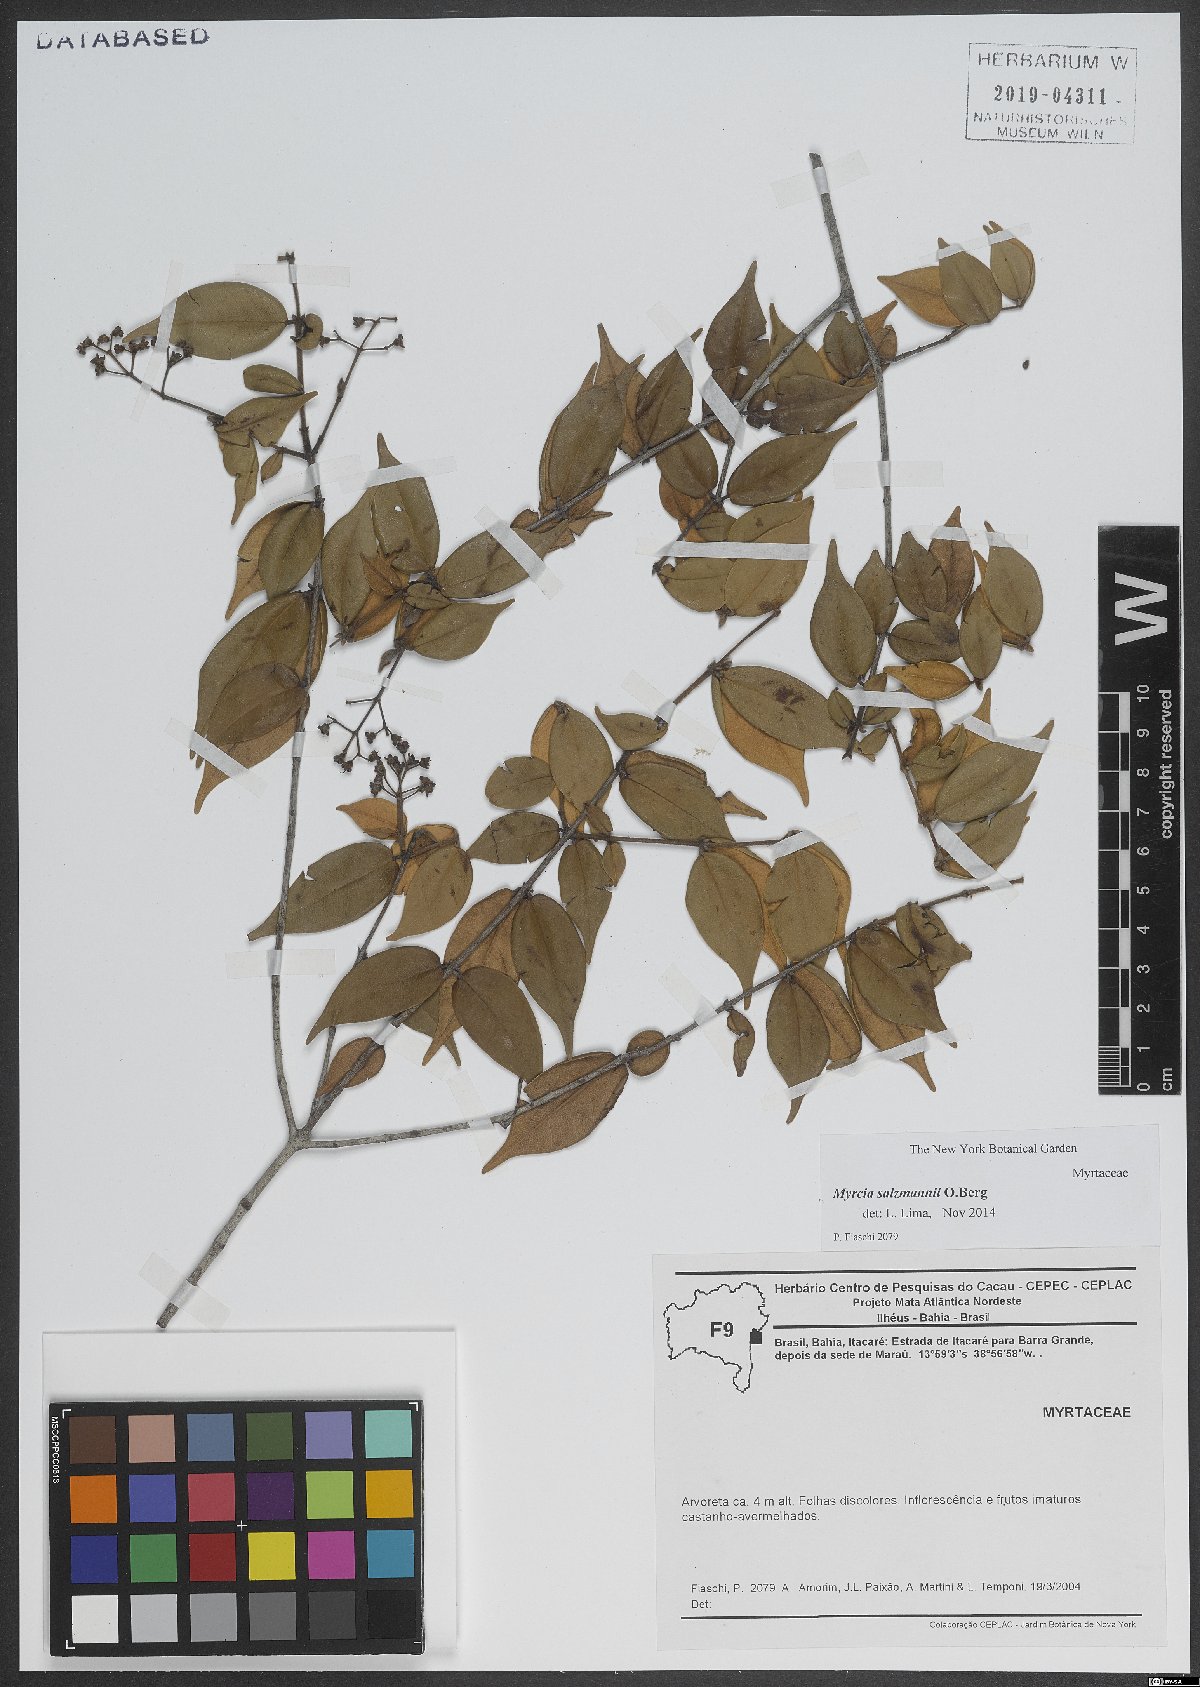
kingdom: Plantae
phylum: Tracheophyta
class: Magnoliopsida
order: Myrtales
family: Myrtaceae
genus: Myrcia
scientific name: Myrcia salzmannii
